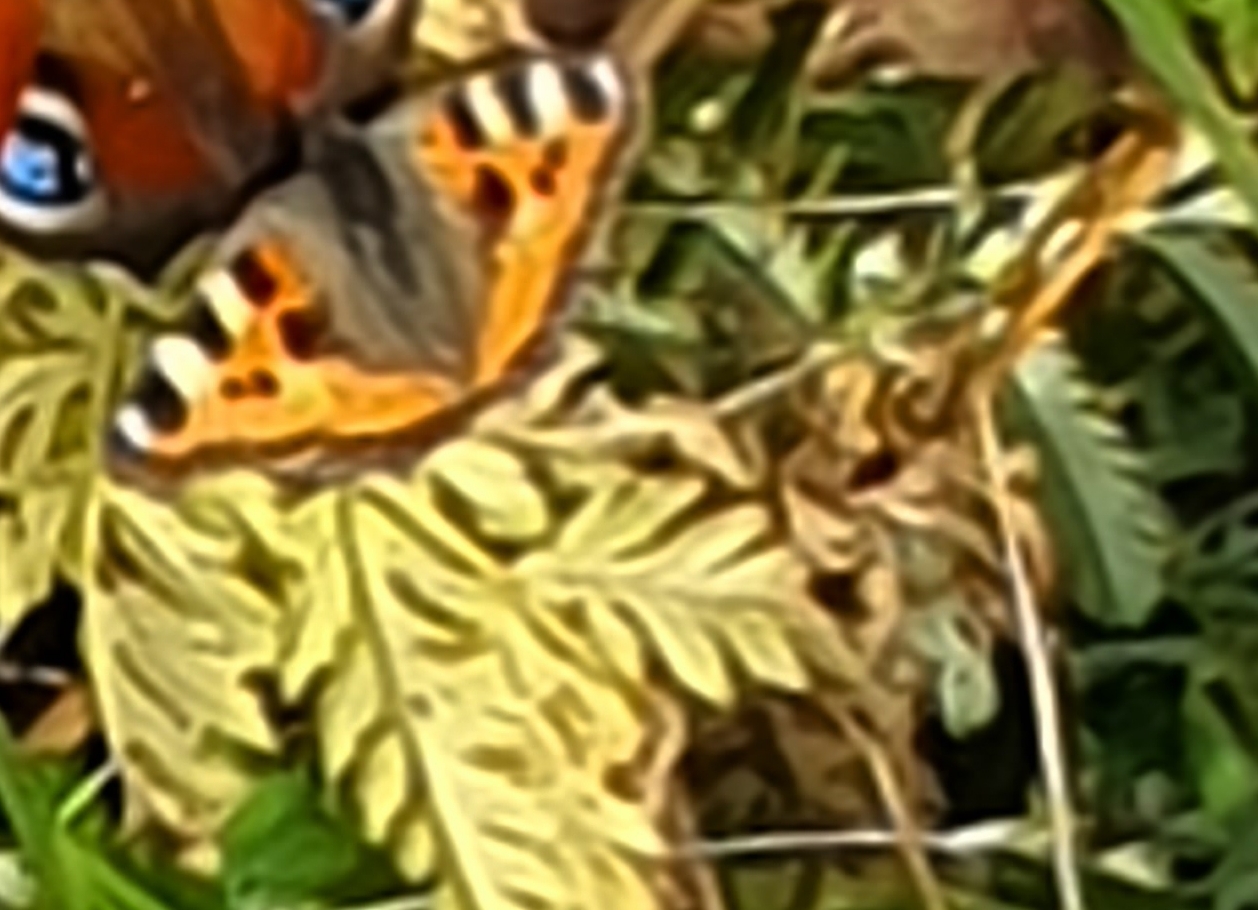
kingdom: Animalia
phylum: Arthropoda
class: Insecta
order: Lepidoptera
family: Nymphalidae
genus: Aglais
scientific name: Aglais urticae
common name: Nældens takvinge
